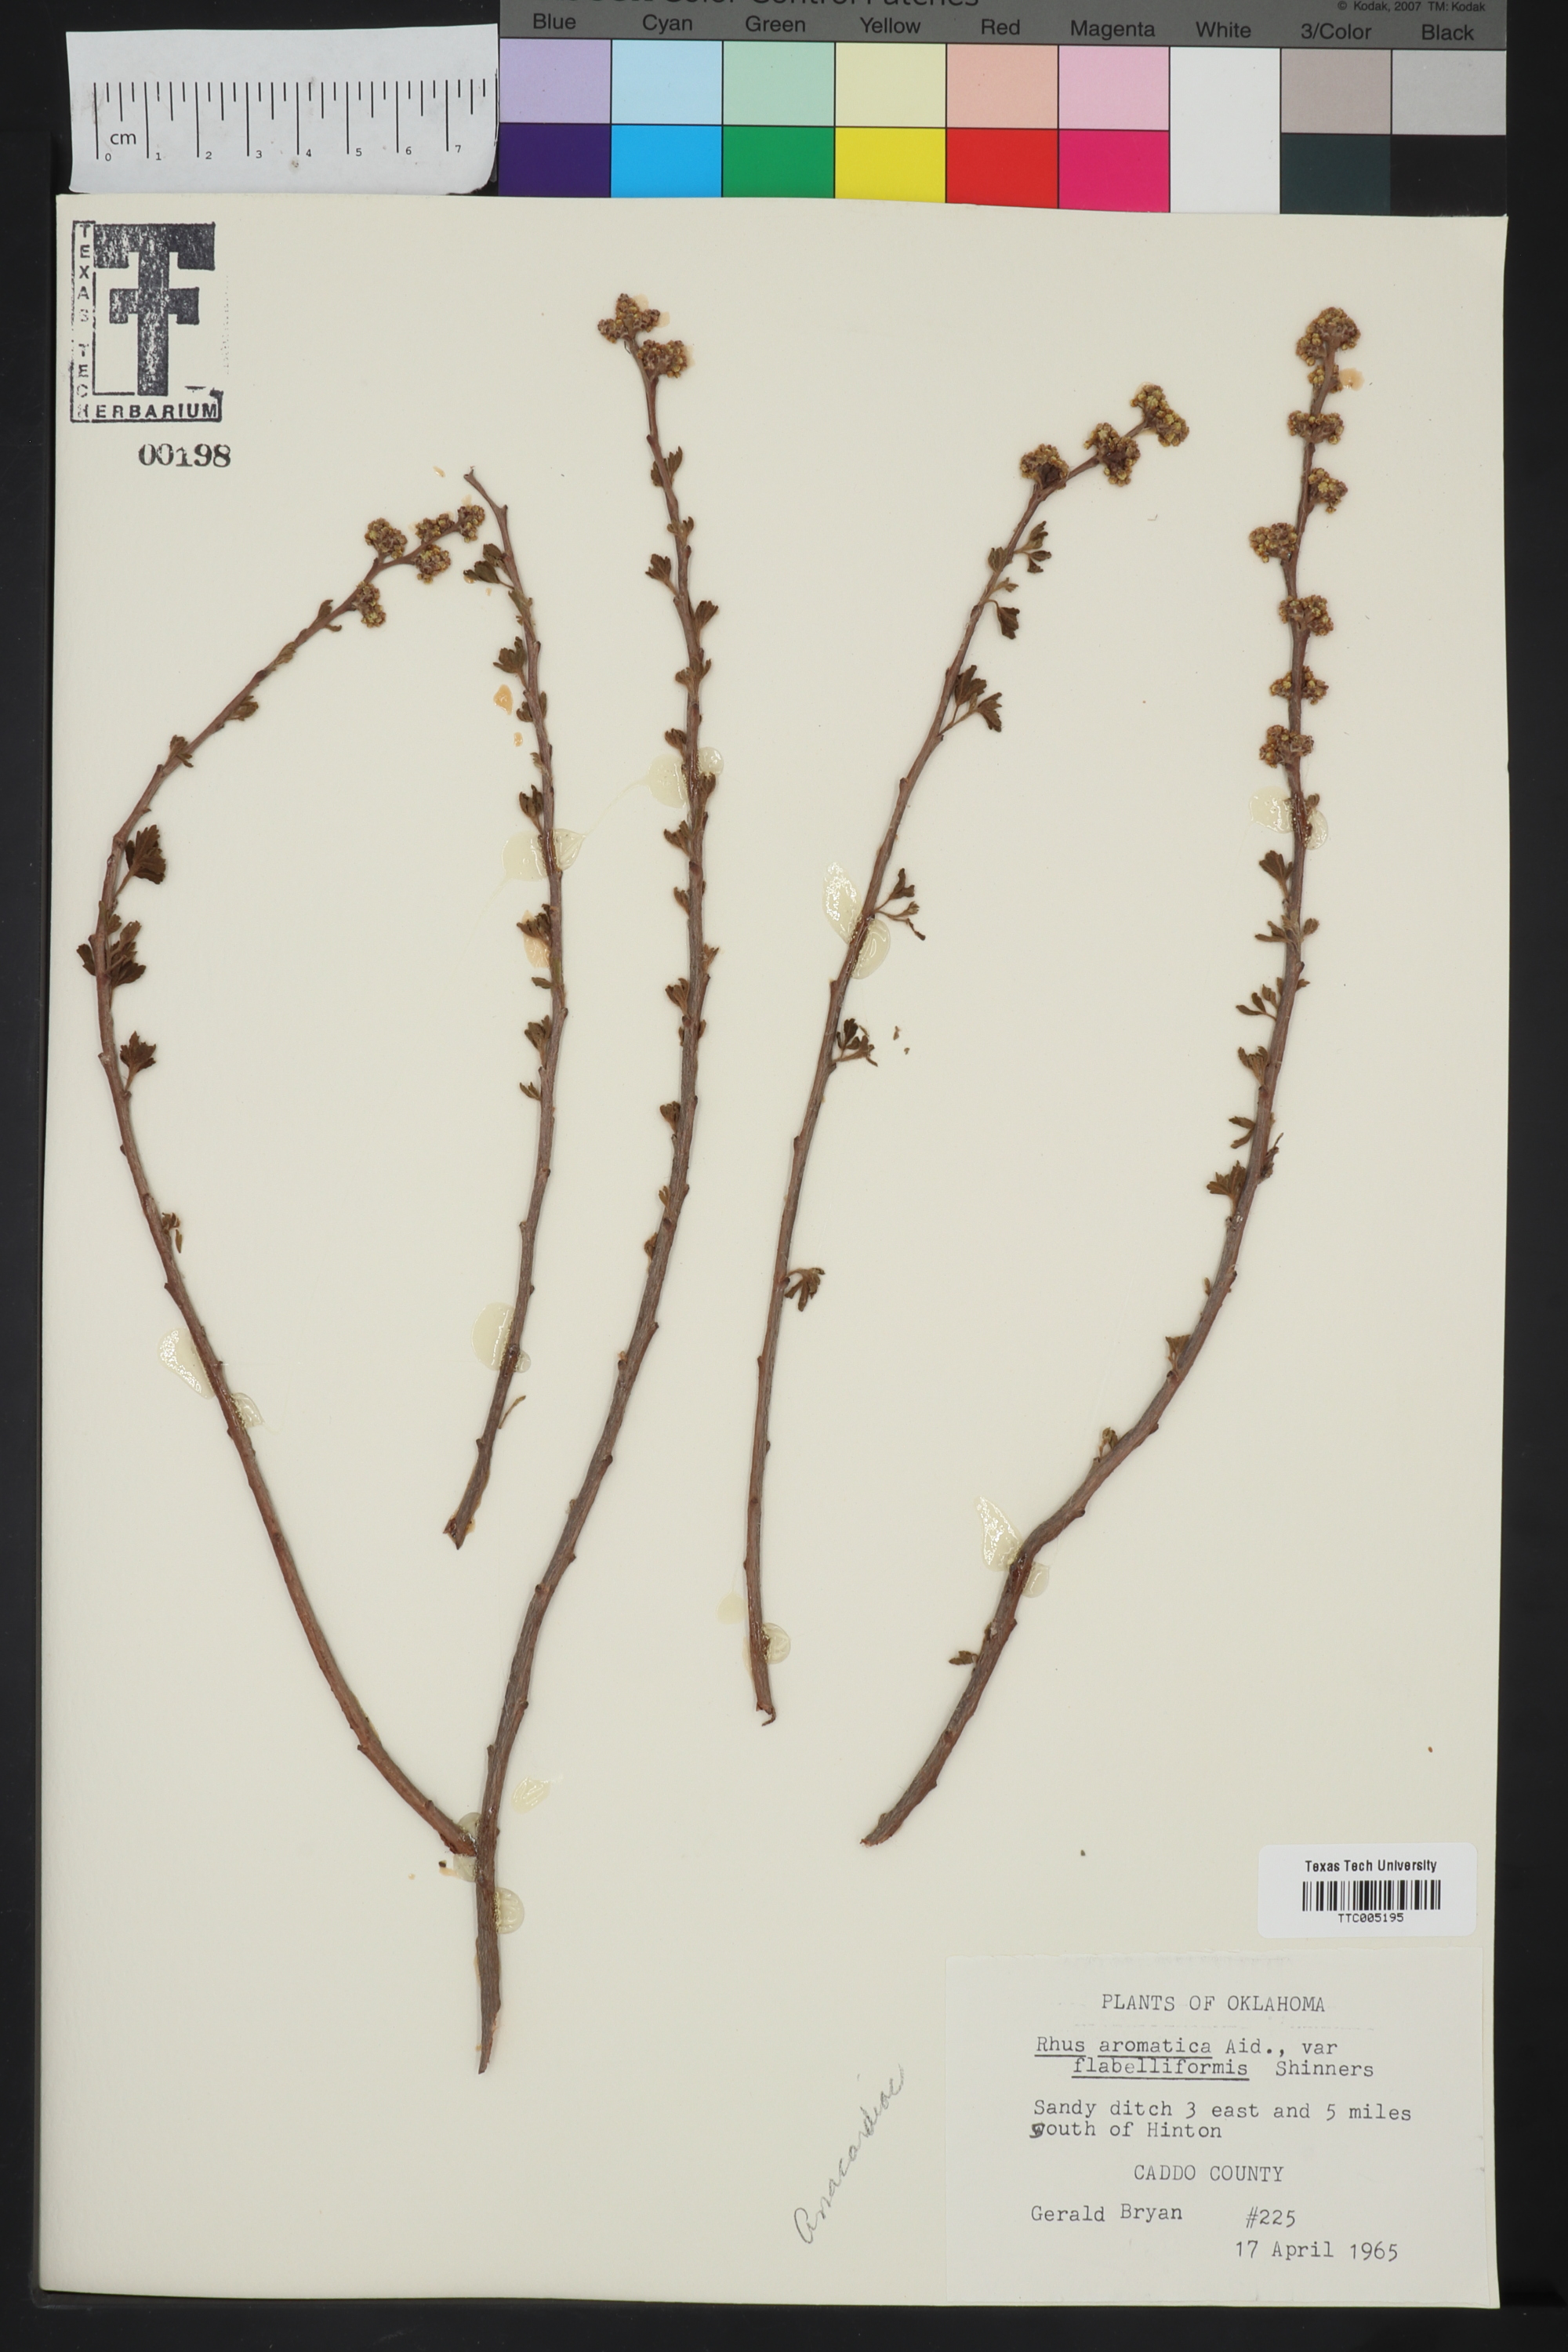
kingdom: Plantae
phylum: Tracheophyta
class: Magnoliopsida
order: Sapindales
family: Anacardiaceae
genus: Rhus
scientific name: Rhus trilobata
